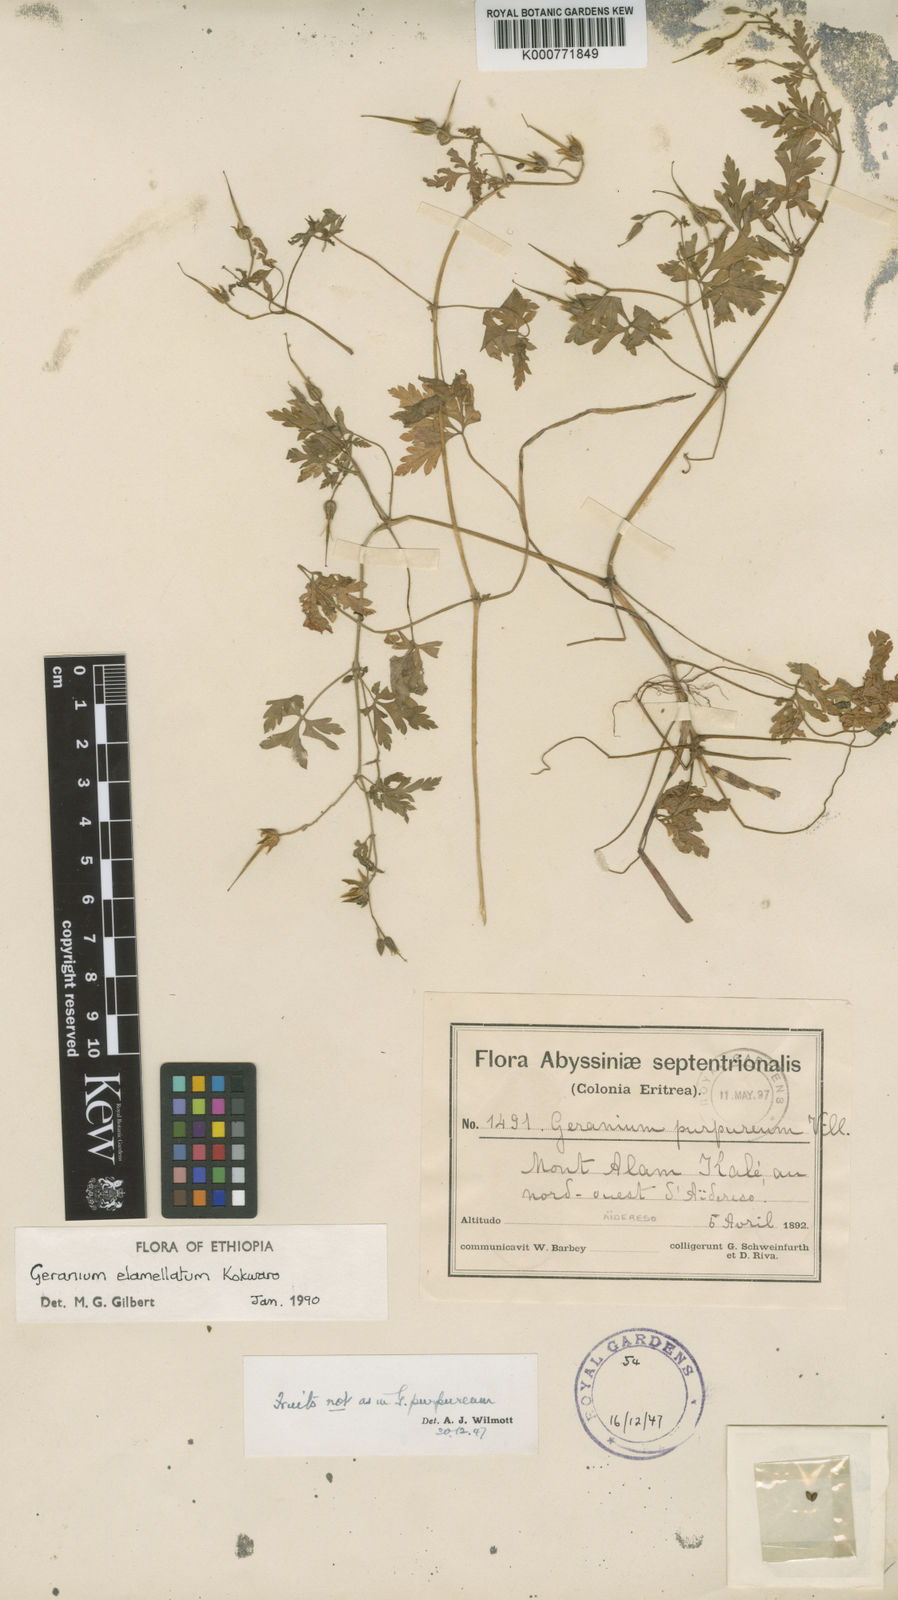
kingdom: Plantae
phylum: Tracheophyta
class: Magnoliopsida
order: Geraniales
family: Geraniaceae
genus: Geranium
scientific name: Geranium purpureum
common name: Little-robin
